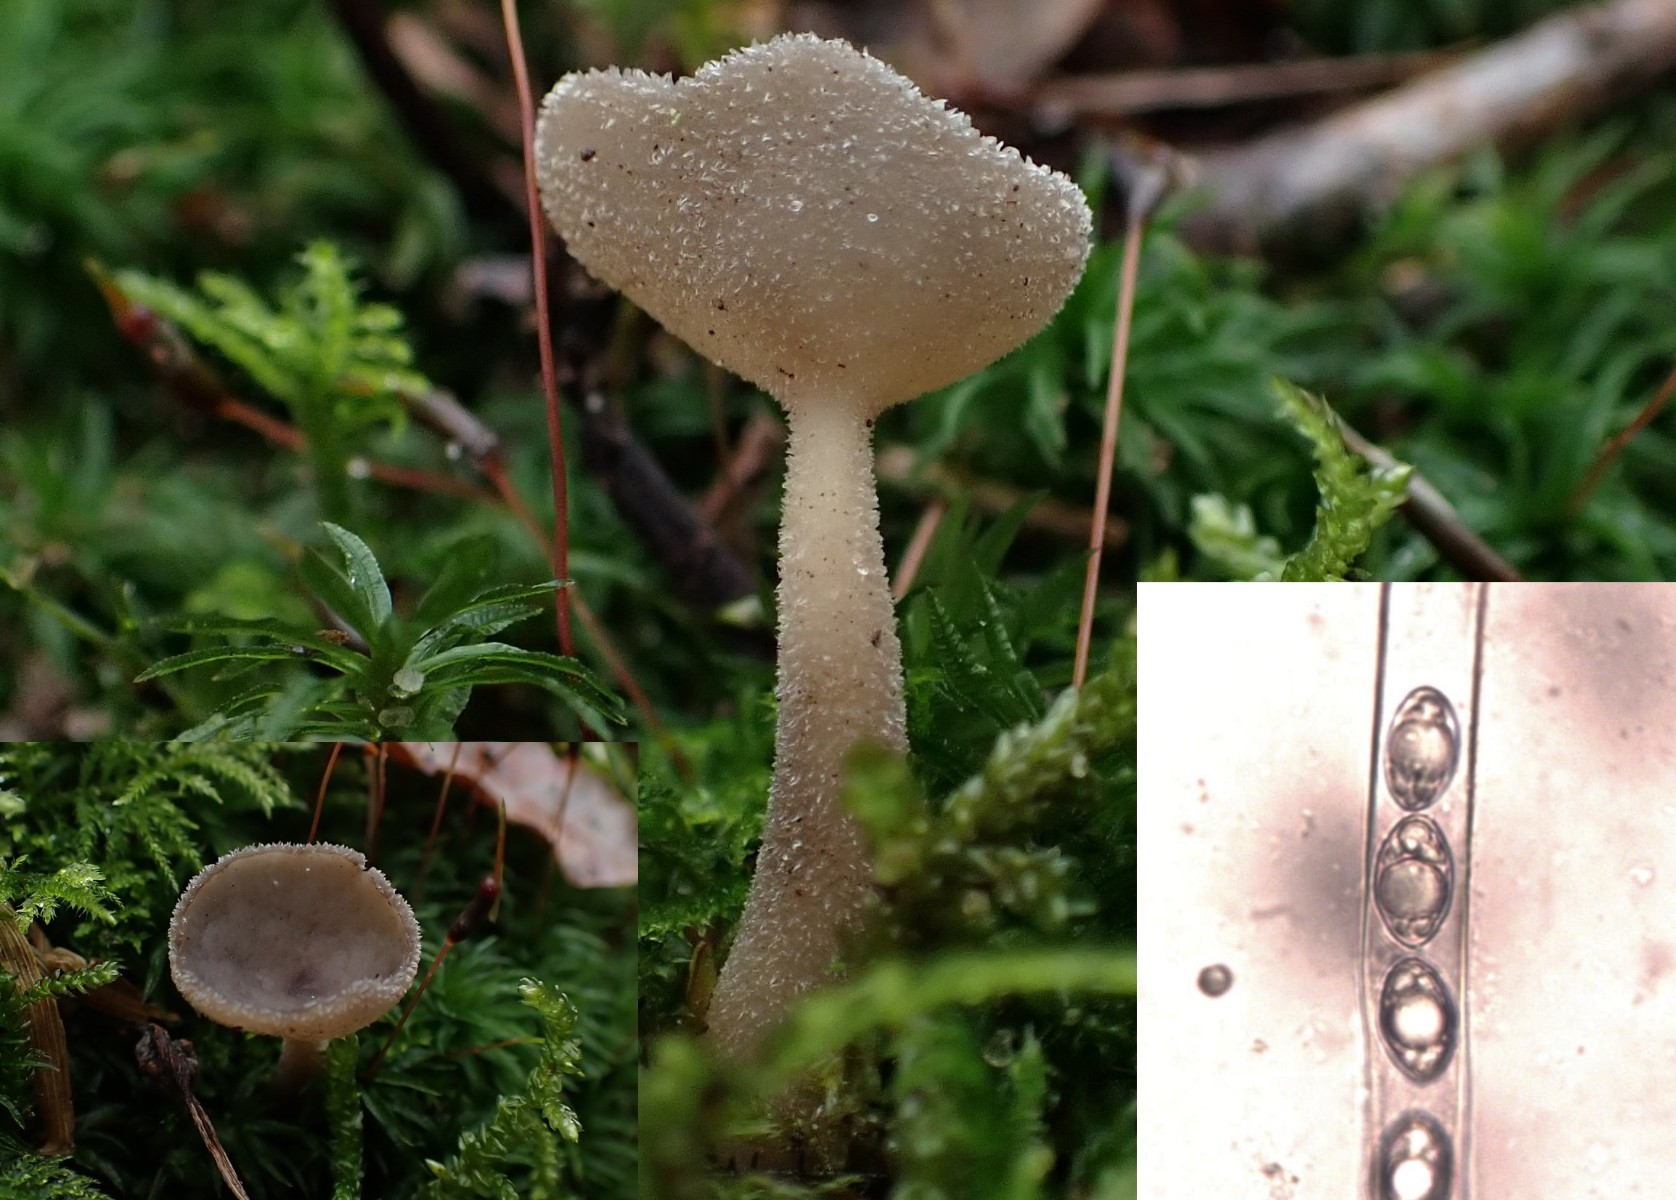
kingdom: Fungi
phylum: Ascomycota
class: Pezizomycetes
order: Pezizales
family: Helvellaceae
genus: Helvella
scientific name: Helvella macropus
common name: højstokket foldhat
